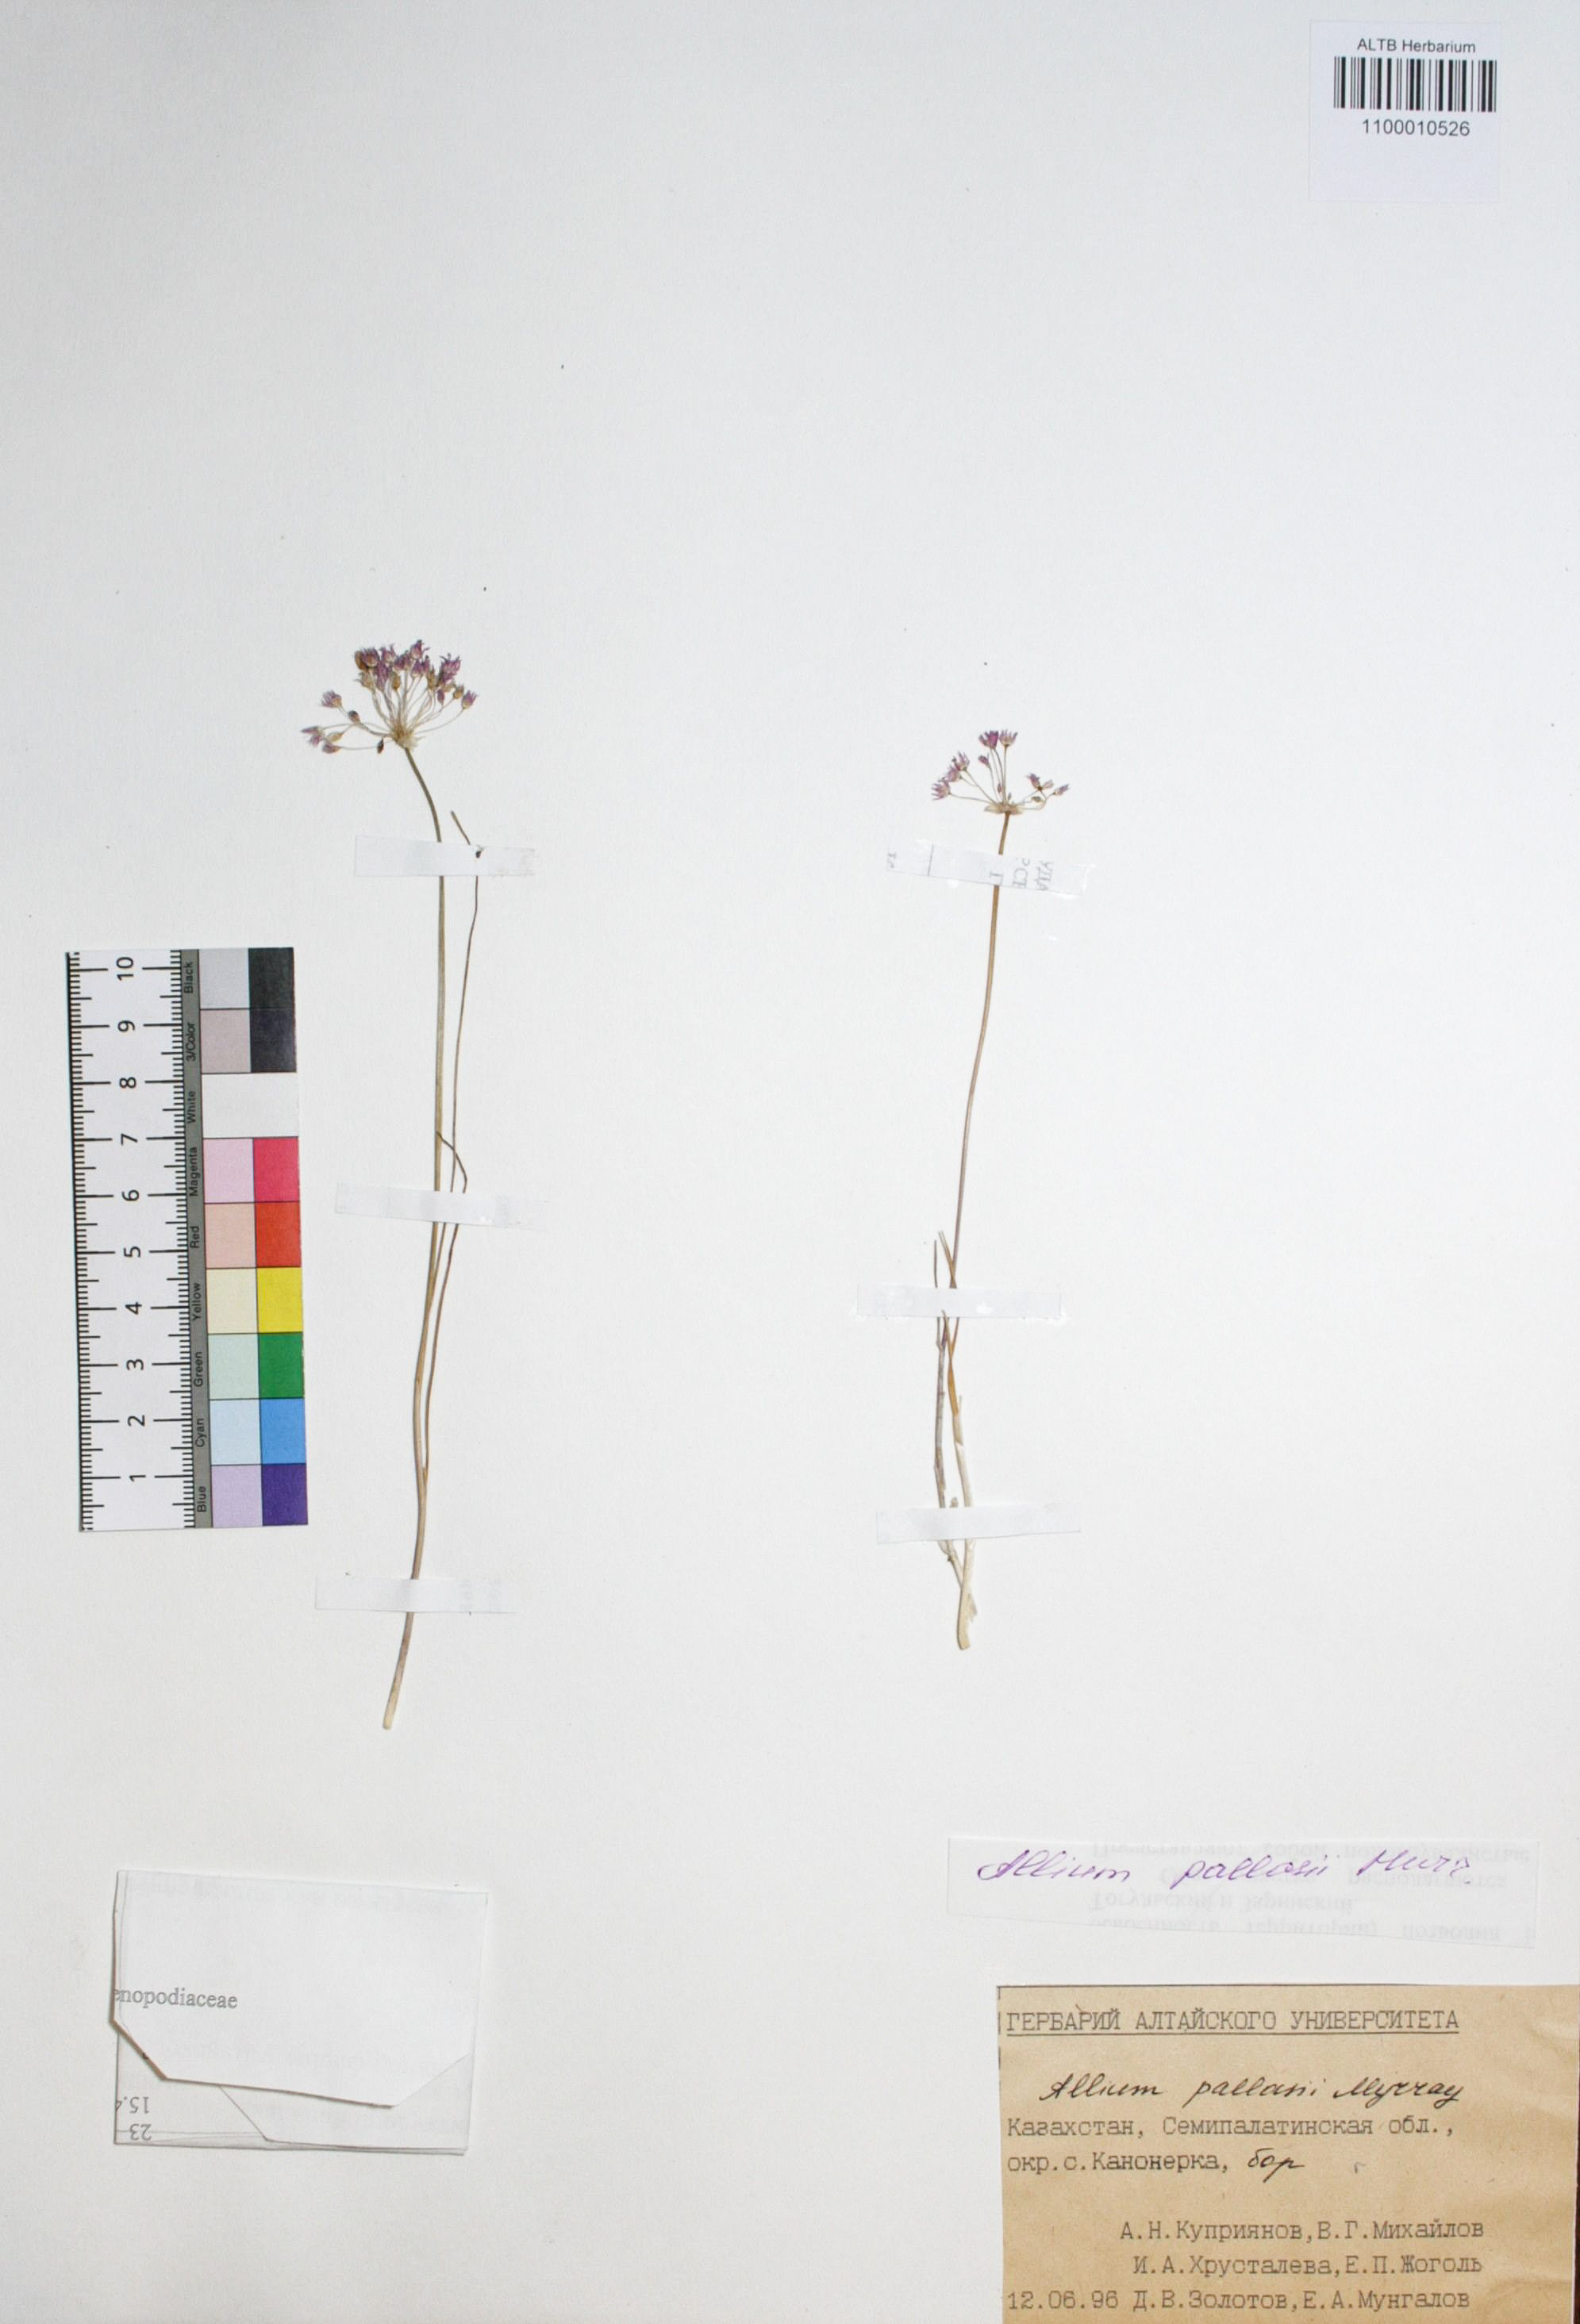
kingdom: Plantae
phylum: Tracheophyta
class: Liliopsida
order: Asparagales
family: Amaryllidaceae
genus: Allium
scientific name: Allium pallasii
